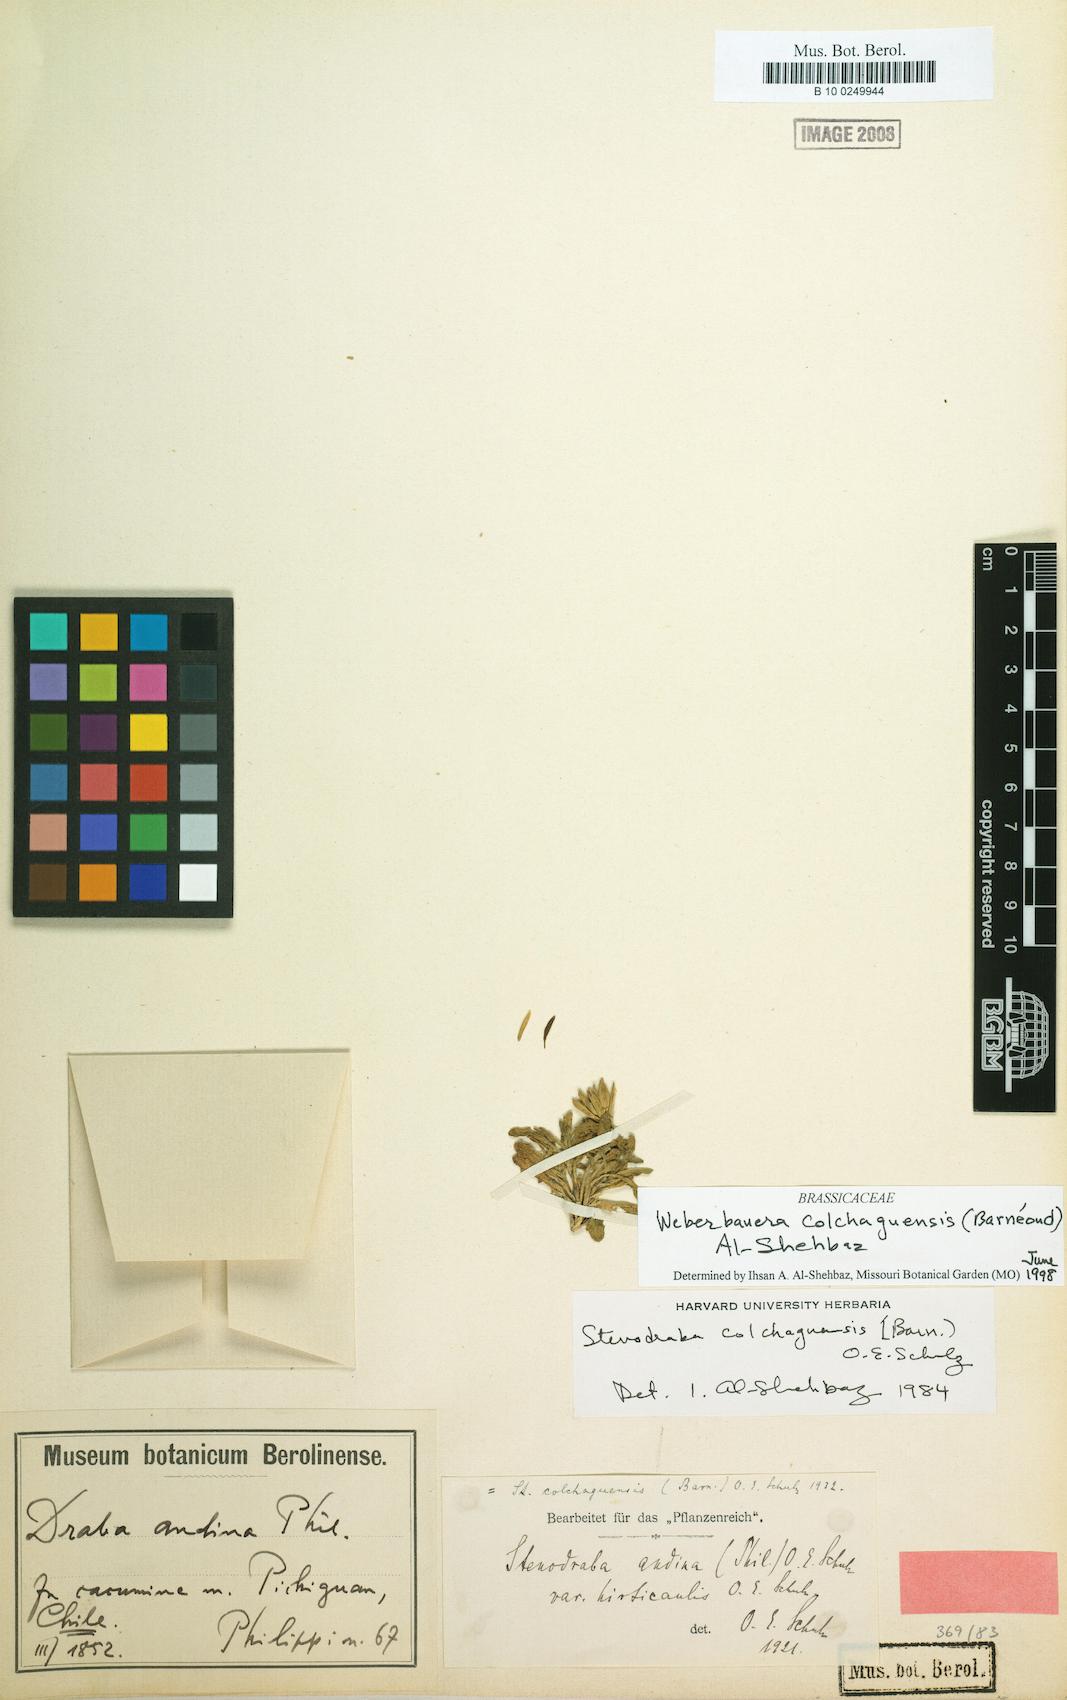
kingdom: Plantae
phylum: Tracheophyta
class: Magnoliopsida
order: Brassicales
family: Brassicaceae
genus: Stenodraba
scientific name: Stenodraba colchaguensis
